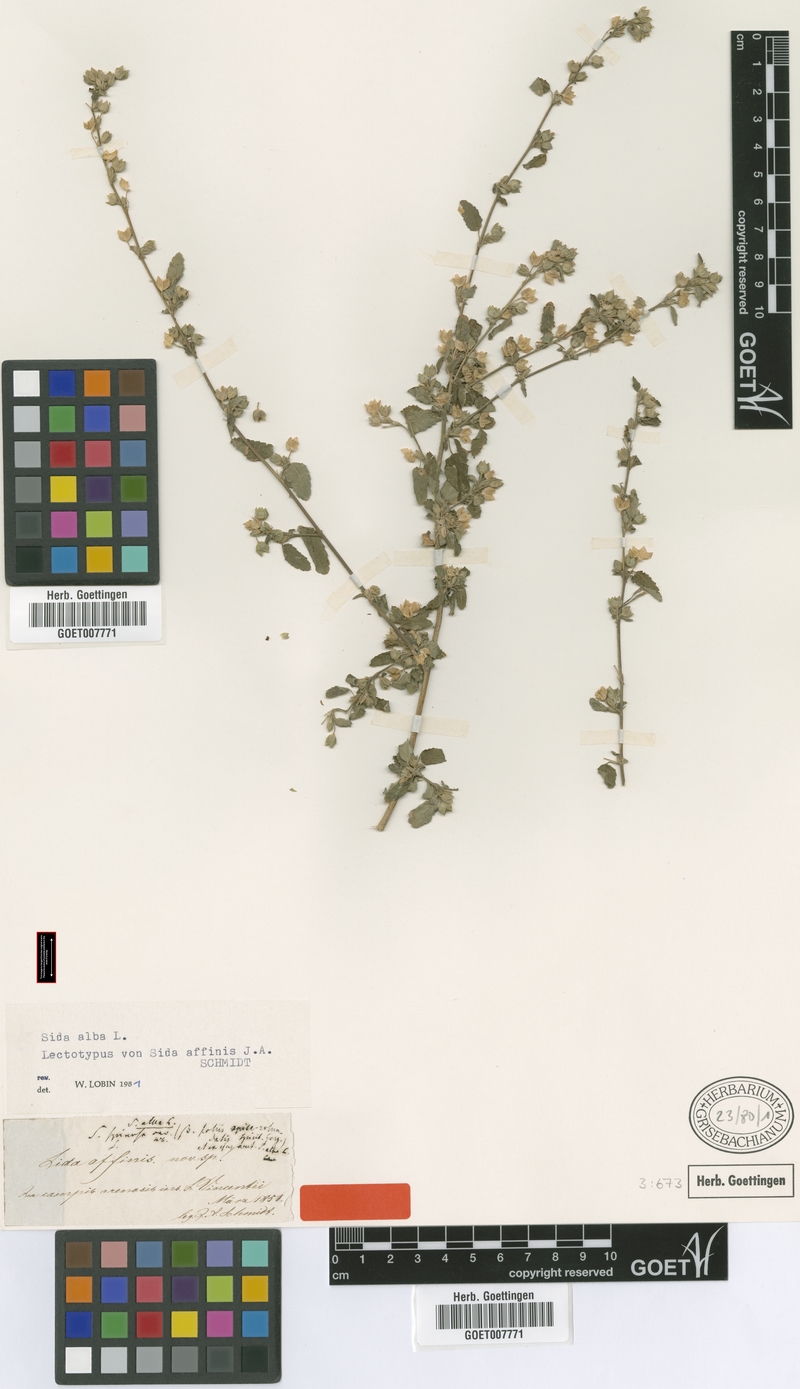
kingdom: Plantae
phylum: Tracheophyta
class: Magnoliopsida
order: Malvales
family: Malvaceae
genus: Sida
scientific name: Sida alba
